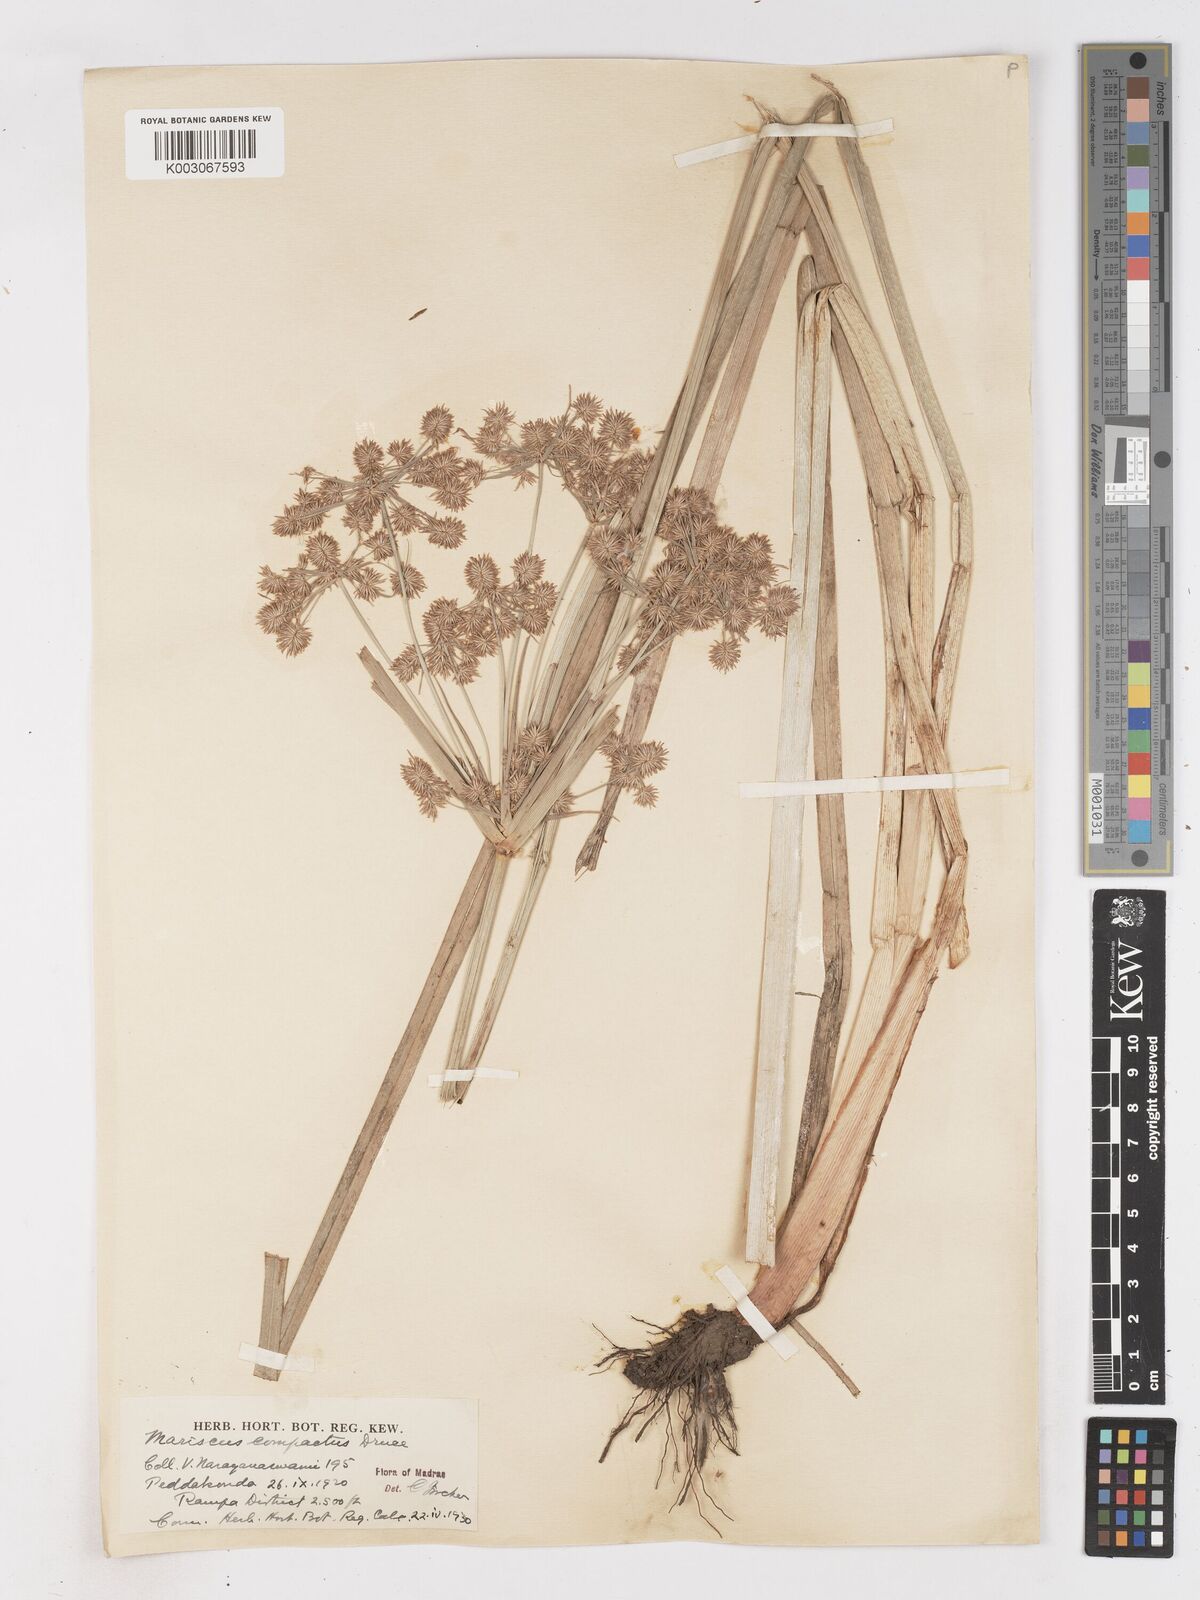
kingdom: Plantae
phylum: Tracheophyta
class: Liliopsida
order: Poales
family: Cyperaceae
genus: Cyperus
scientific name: Cyperus compactus
